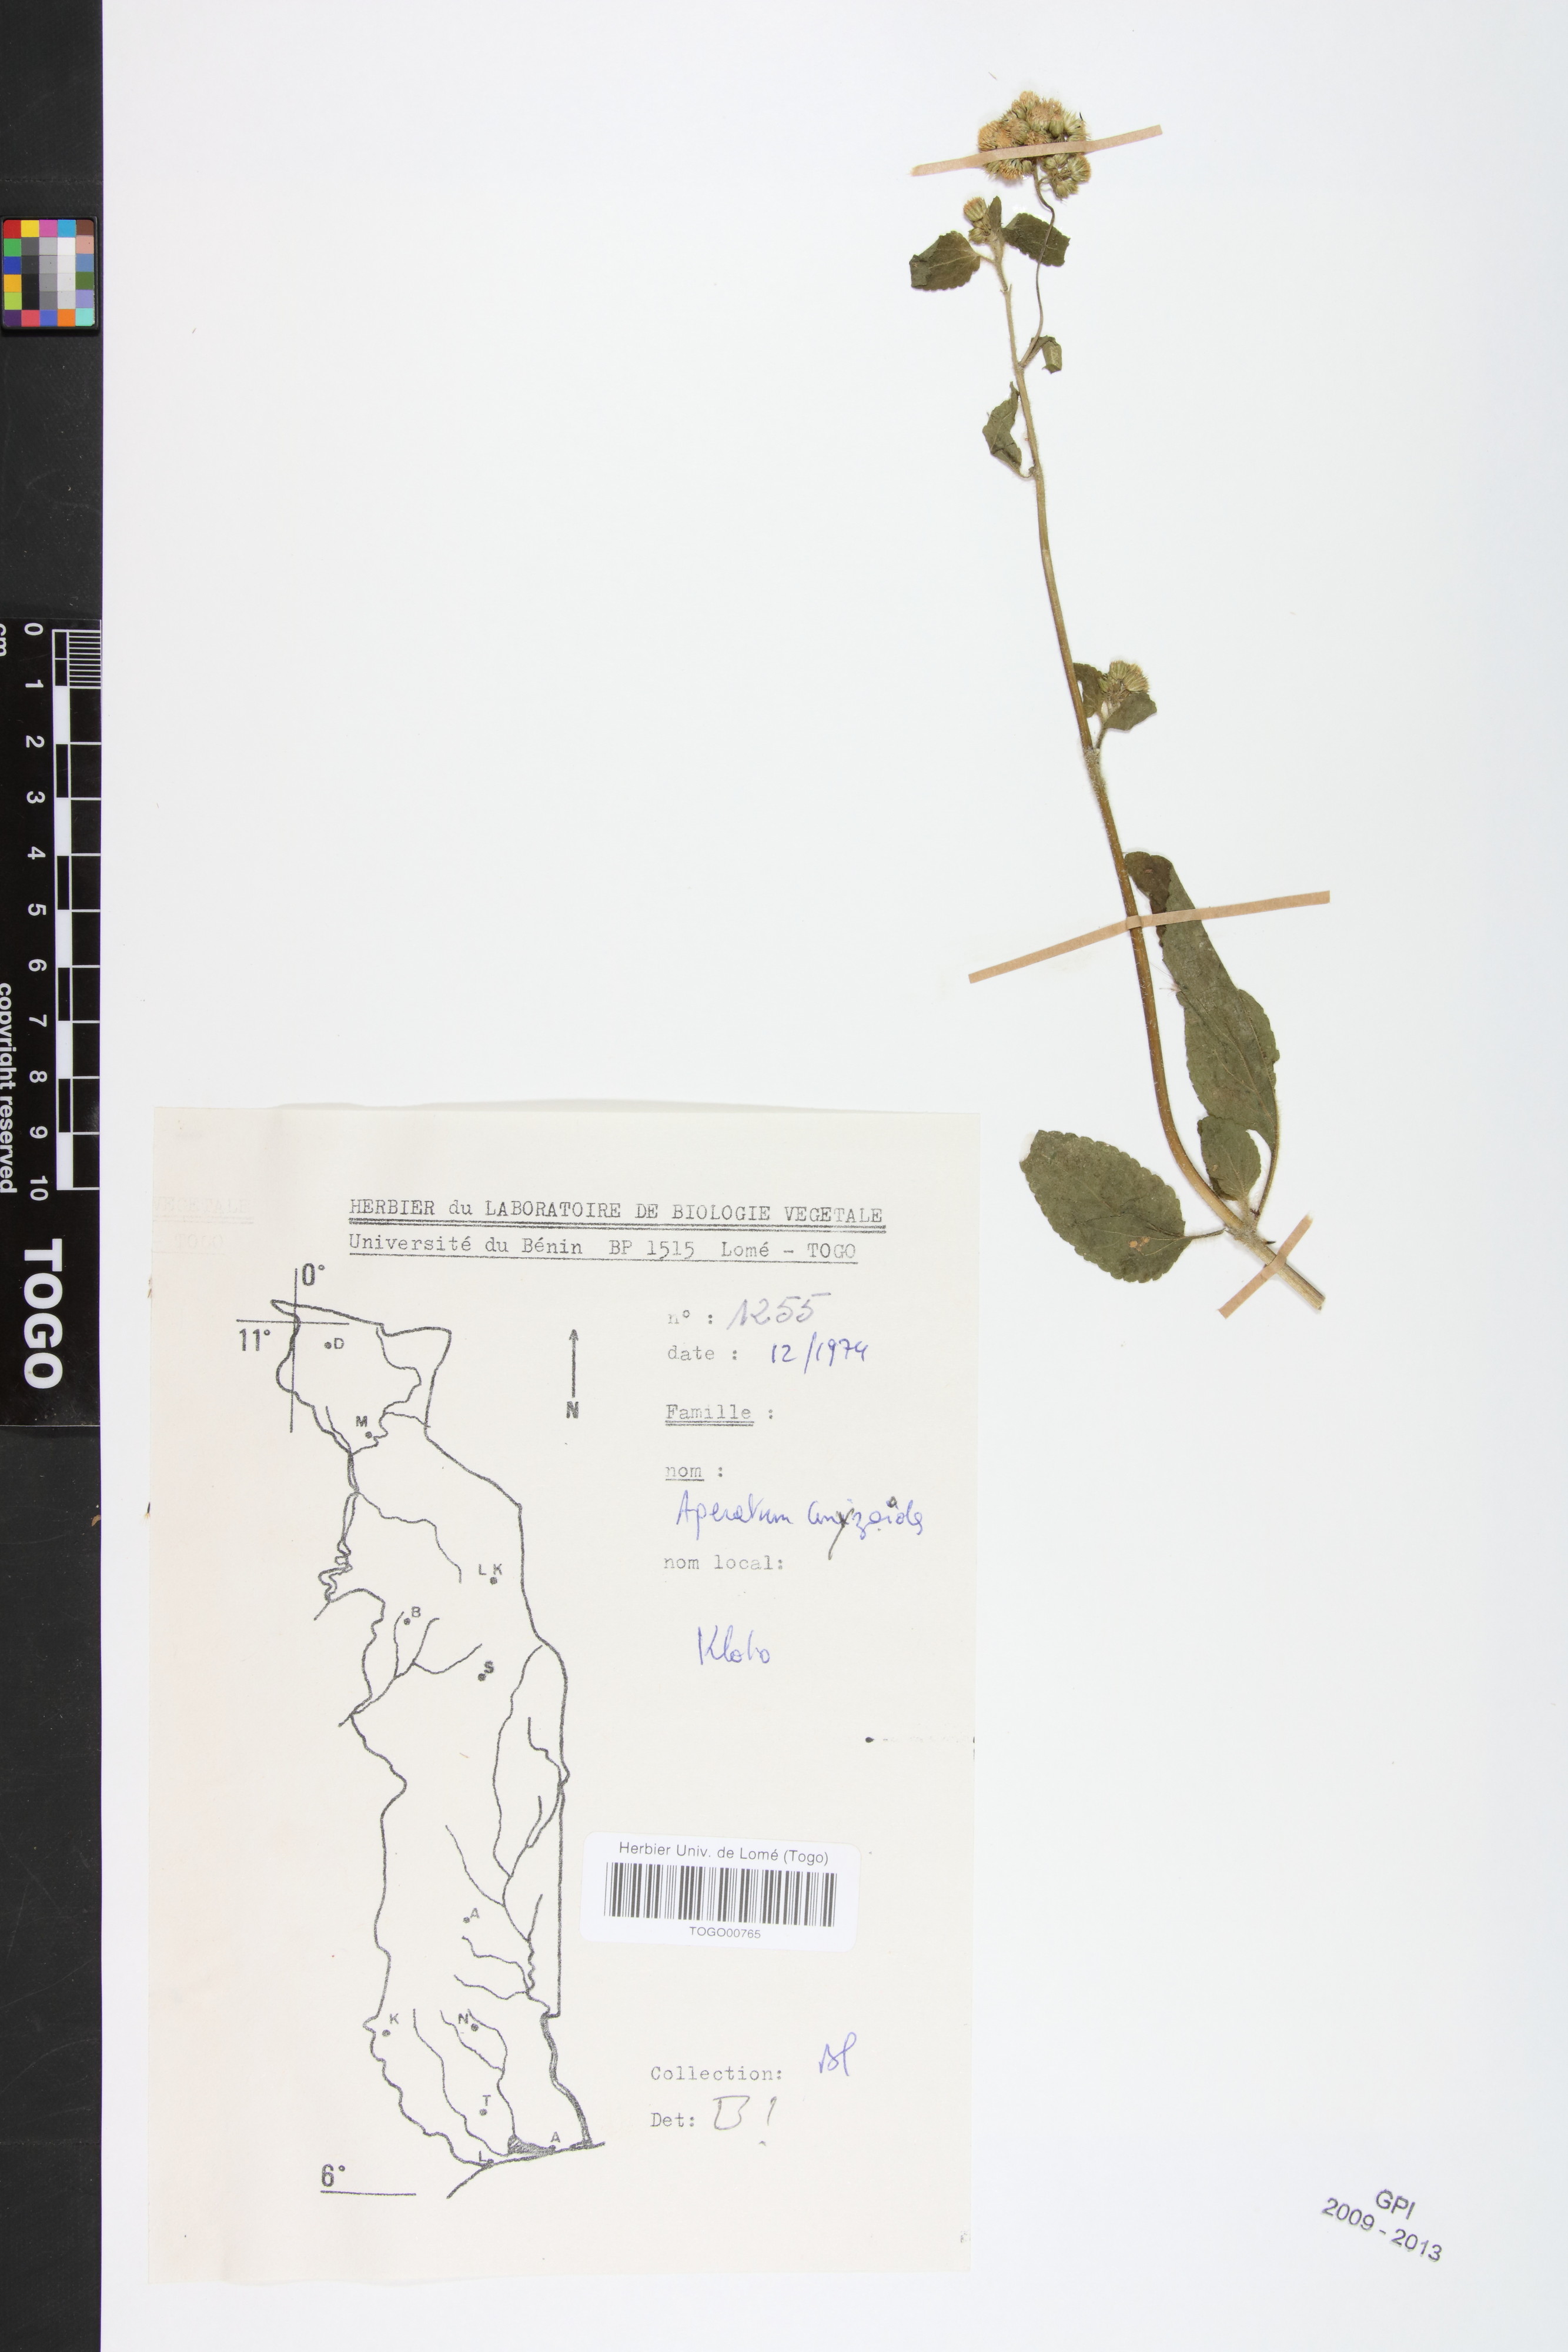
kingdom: Plantae
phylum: Tracheophyta
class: Magnoliopsida
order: Asterales
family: Asteraceae
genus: Ageratum
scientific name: Ageratum conyzoides
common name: Tropical whiteweed
